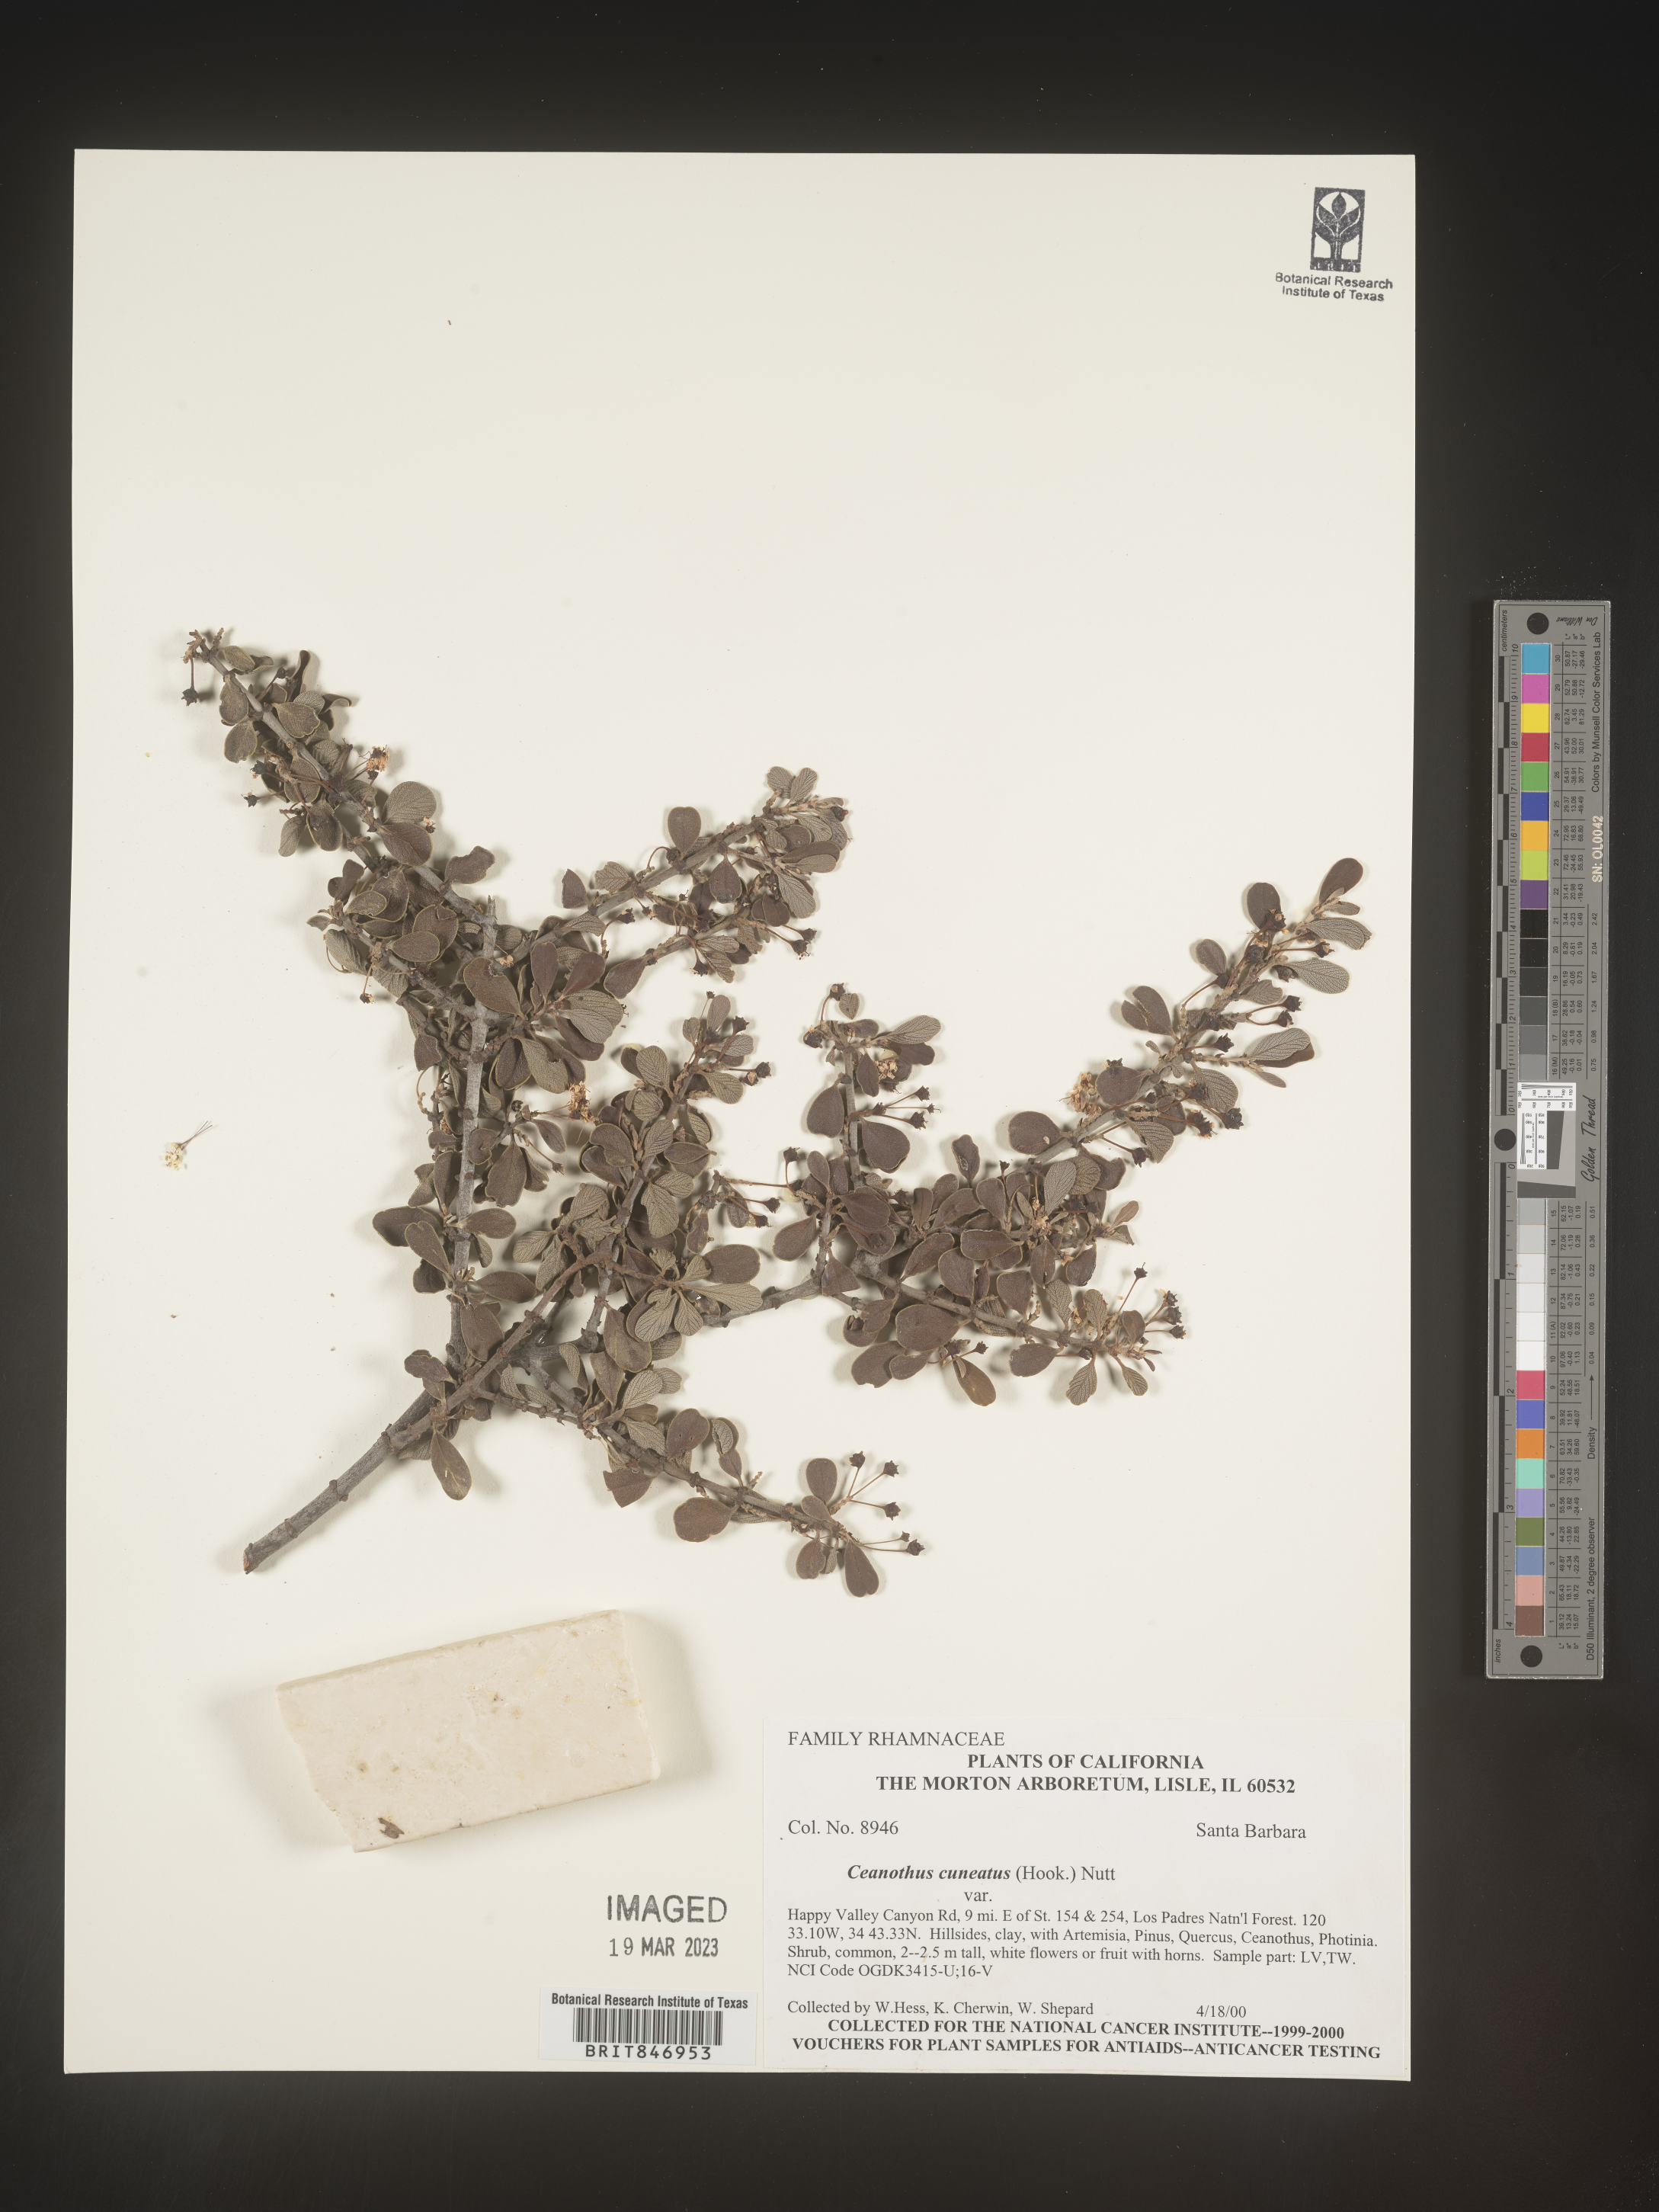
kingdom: Plantae
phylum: Tracheophyta
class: Magnoliopsida
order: Rosales
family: Rhamnaceae
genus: Ceanothus
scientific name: Ceanothus cuneatus
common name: Cuneate ceanothus
